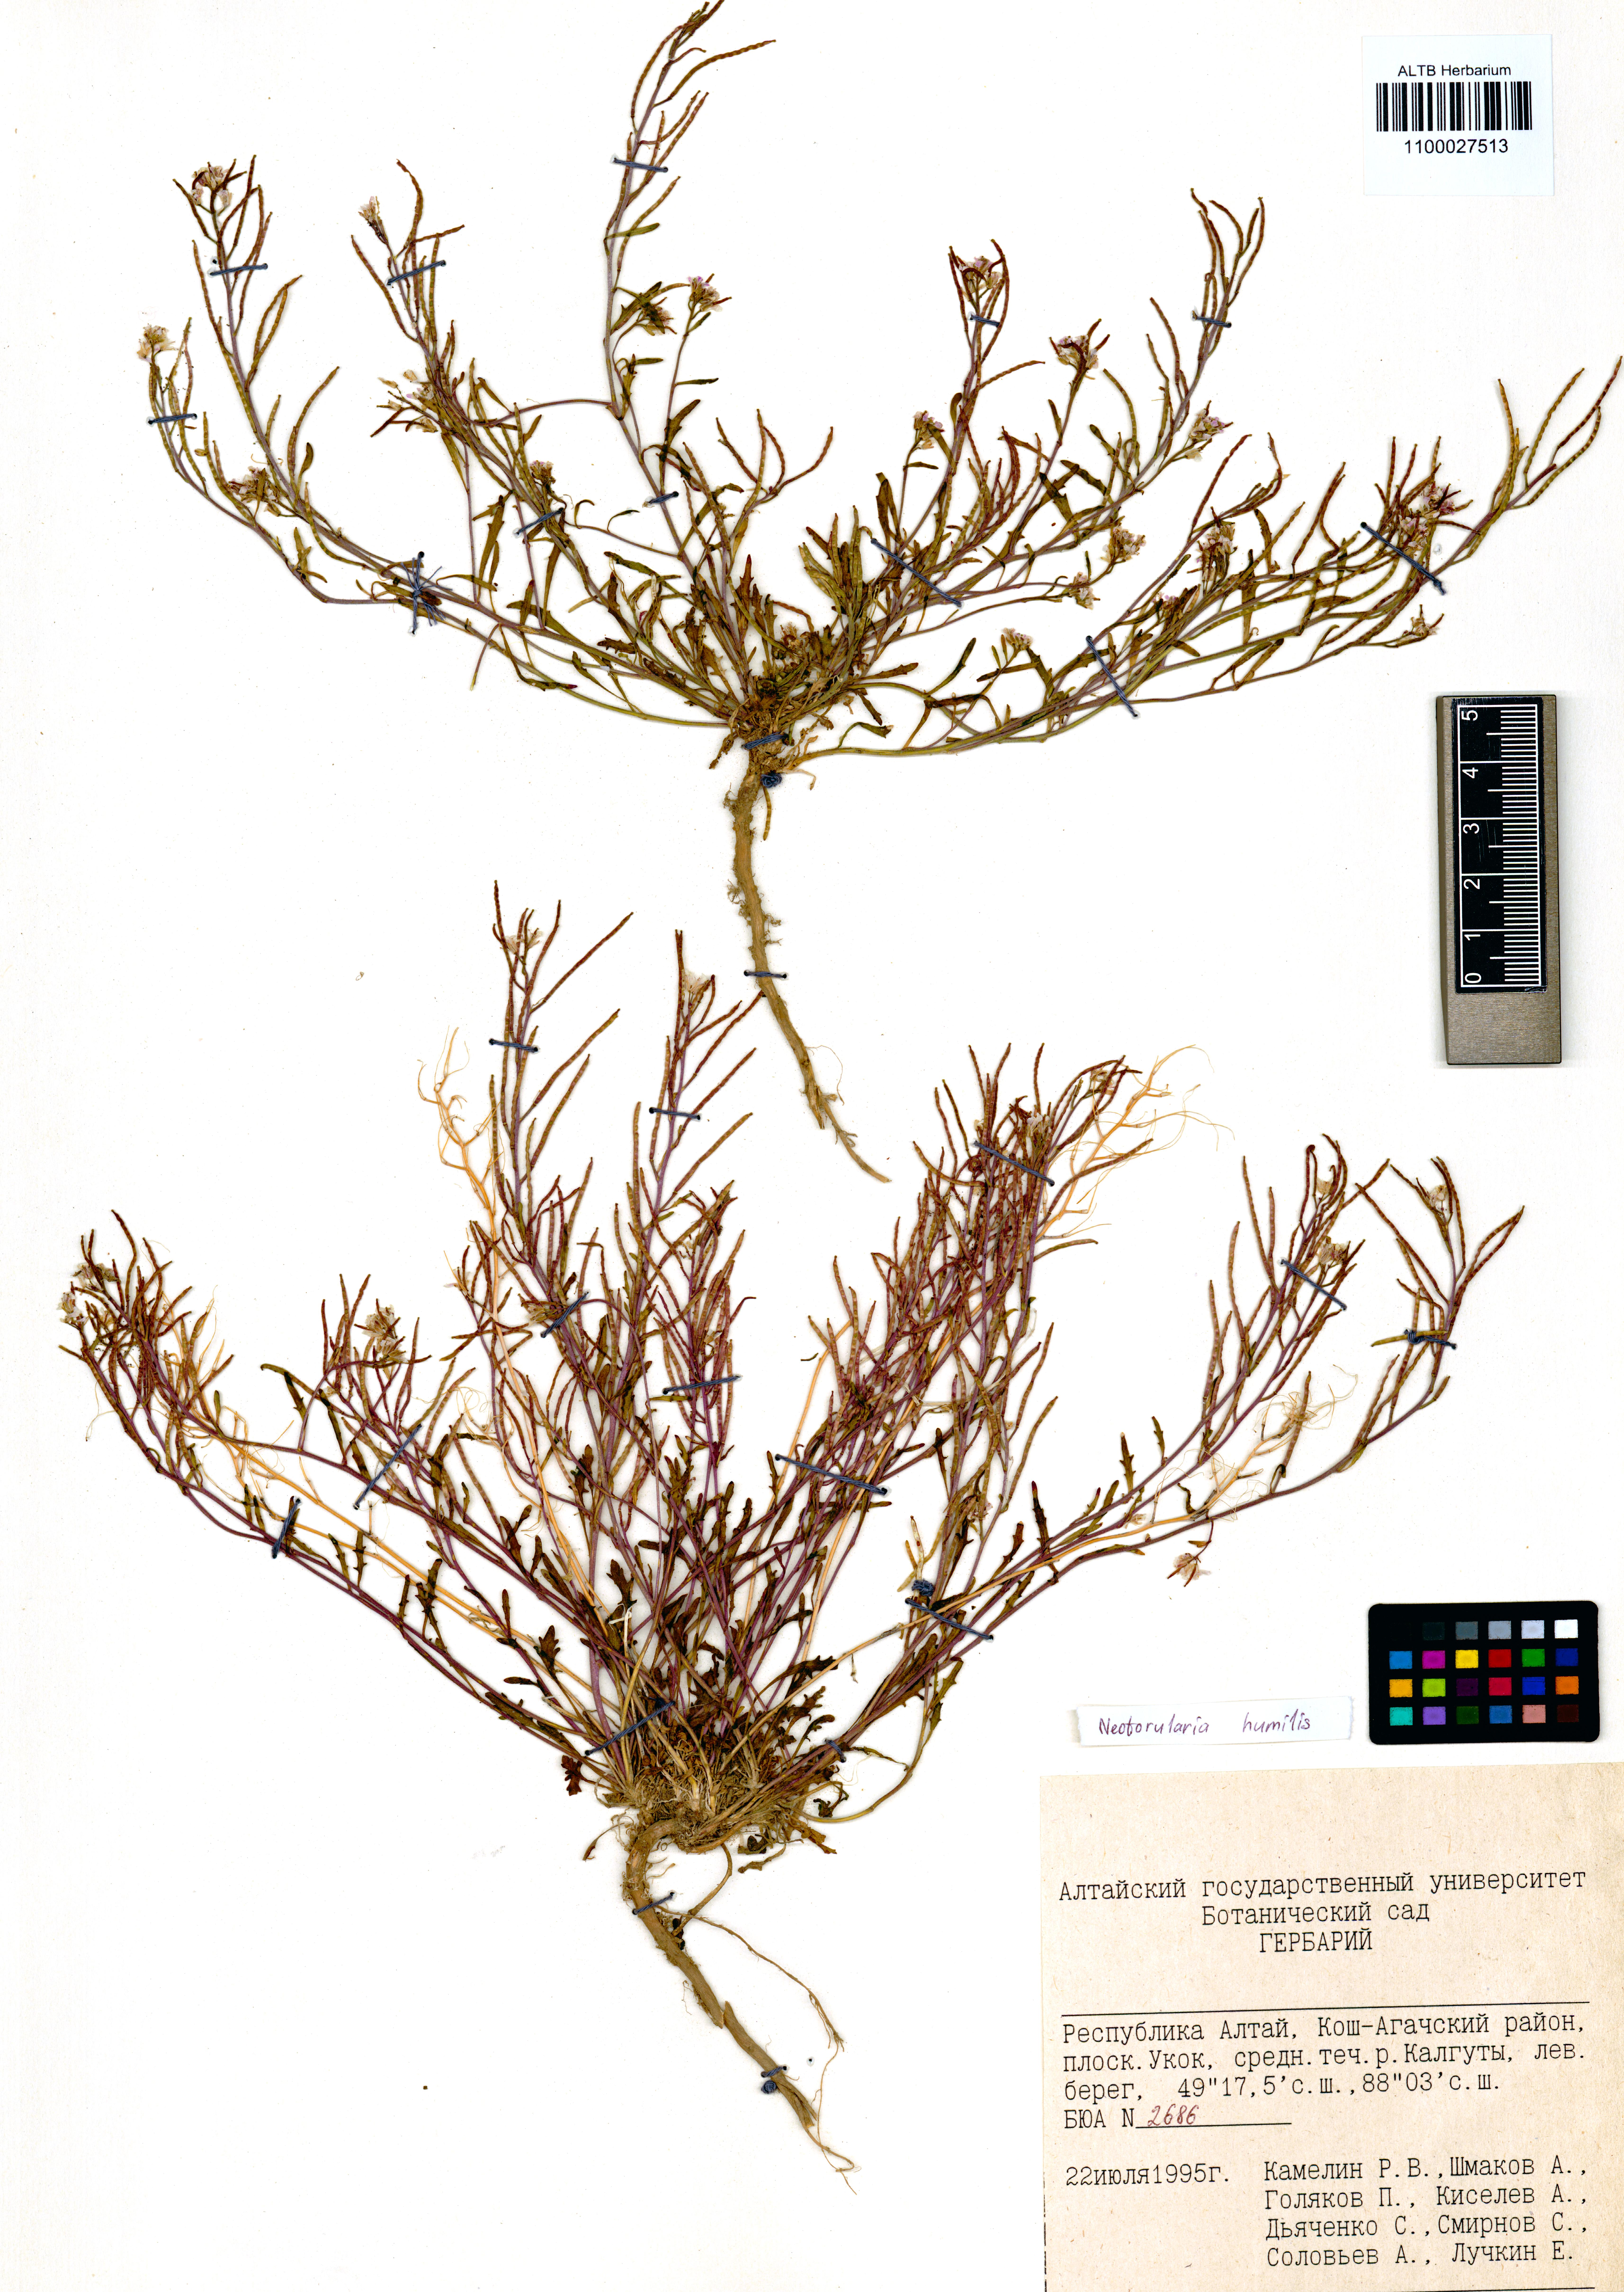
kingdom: Plantae
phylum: Tracheophyta
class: Magnoliopsida
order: Brassicales
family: Brassicaceae
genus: Braya
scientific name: Braya humilis
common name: Alpine northern rockcress
